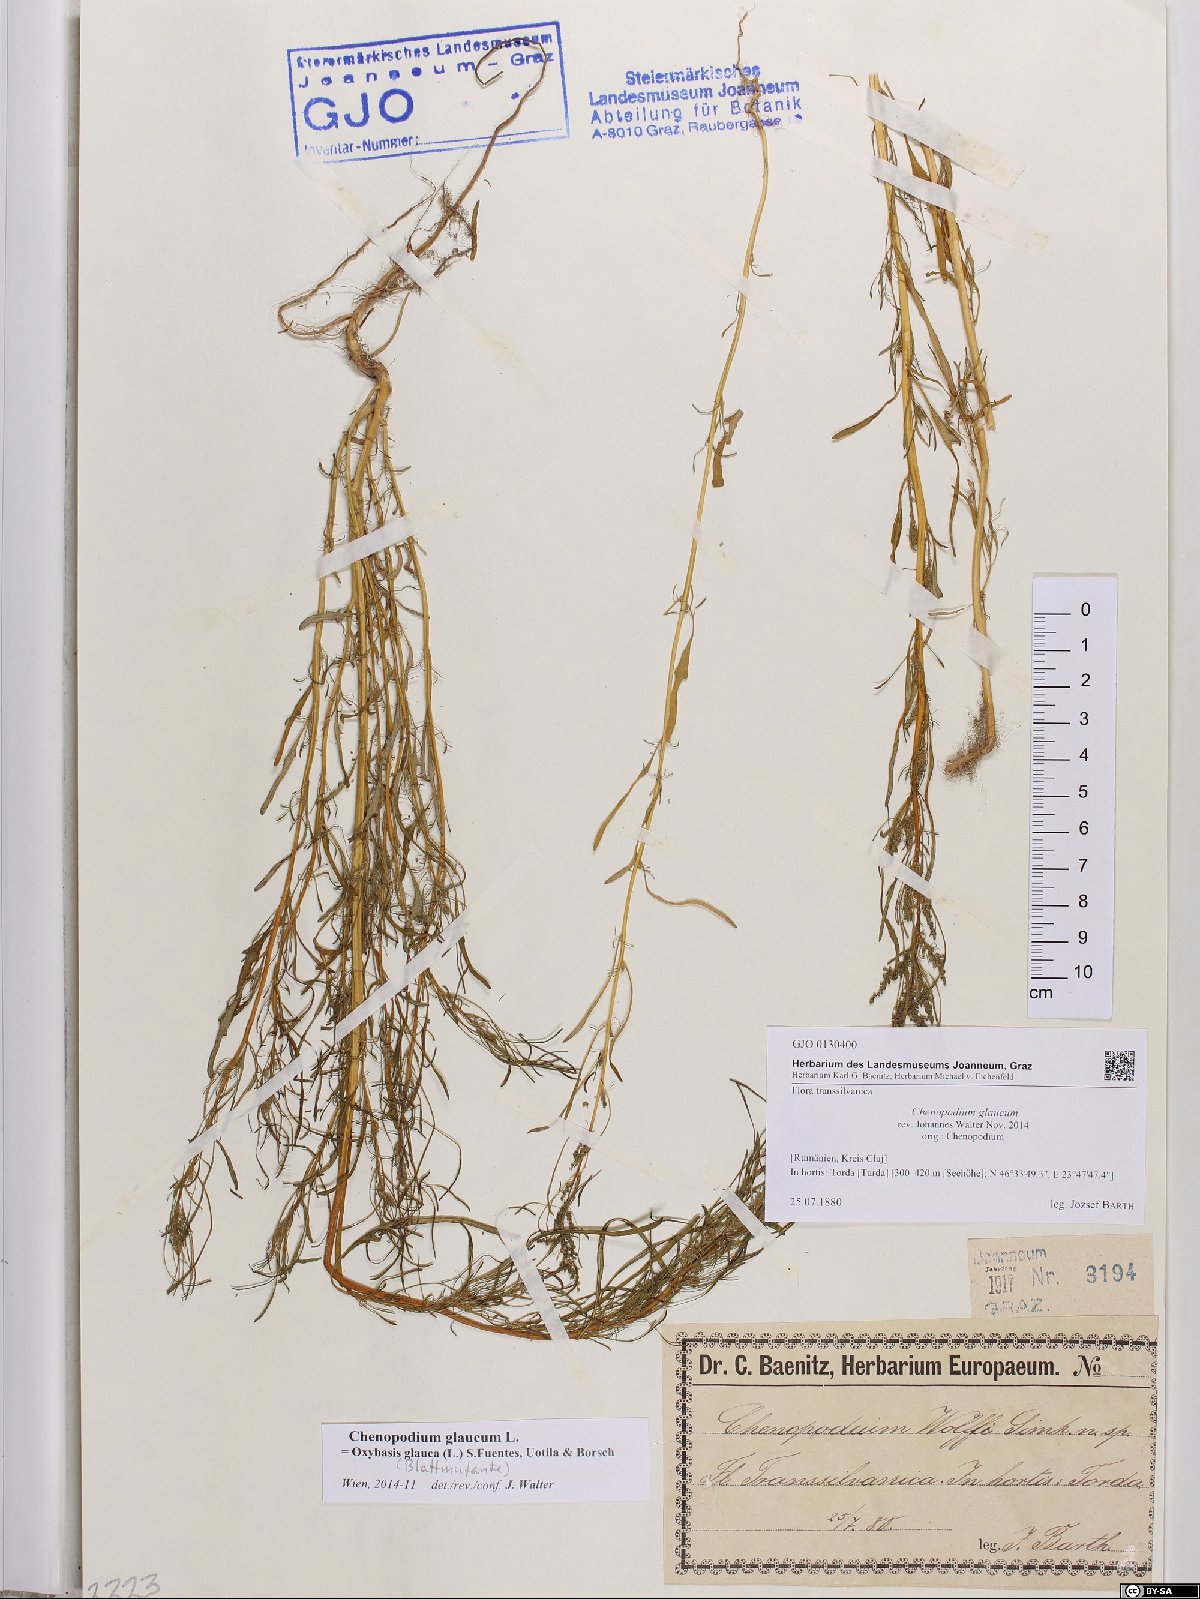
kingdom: Plantae
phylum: Tracheophyta
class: Magnoliopsida
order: Caryophyllales
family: Amaranthaceae
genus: Oxybasis
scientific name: Oxybasis glauca
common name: Glaucous goosefoot
